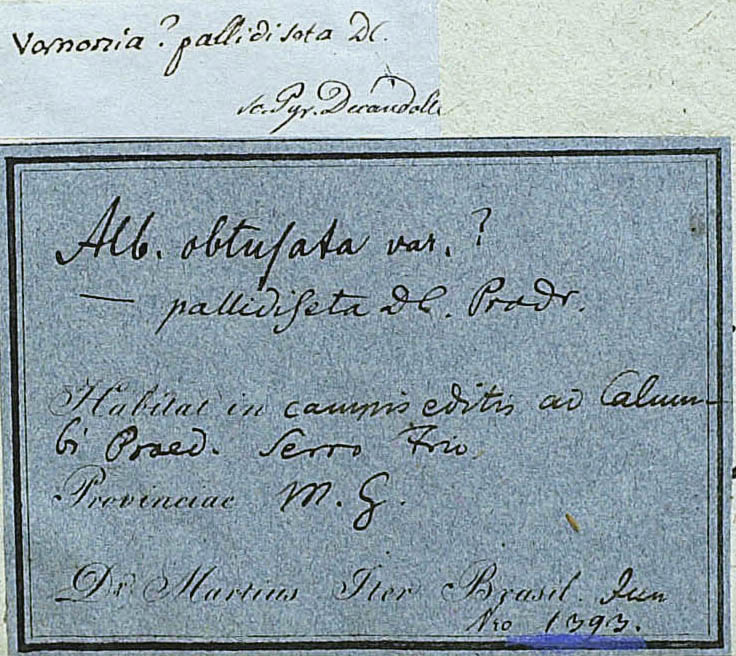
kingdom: Plantae
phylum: Tracheophyta
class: Magnoliopsida
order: Asterales
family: Asteraceae
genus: Eremanthus
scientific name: Eremanthus glomerulatus
